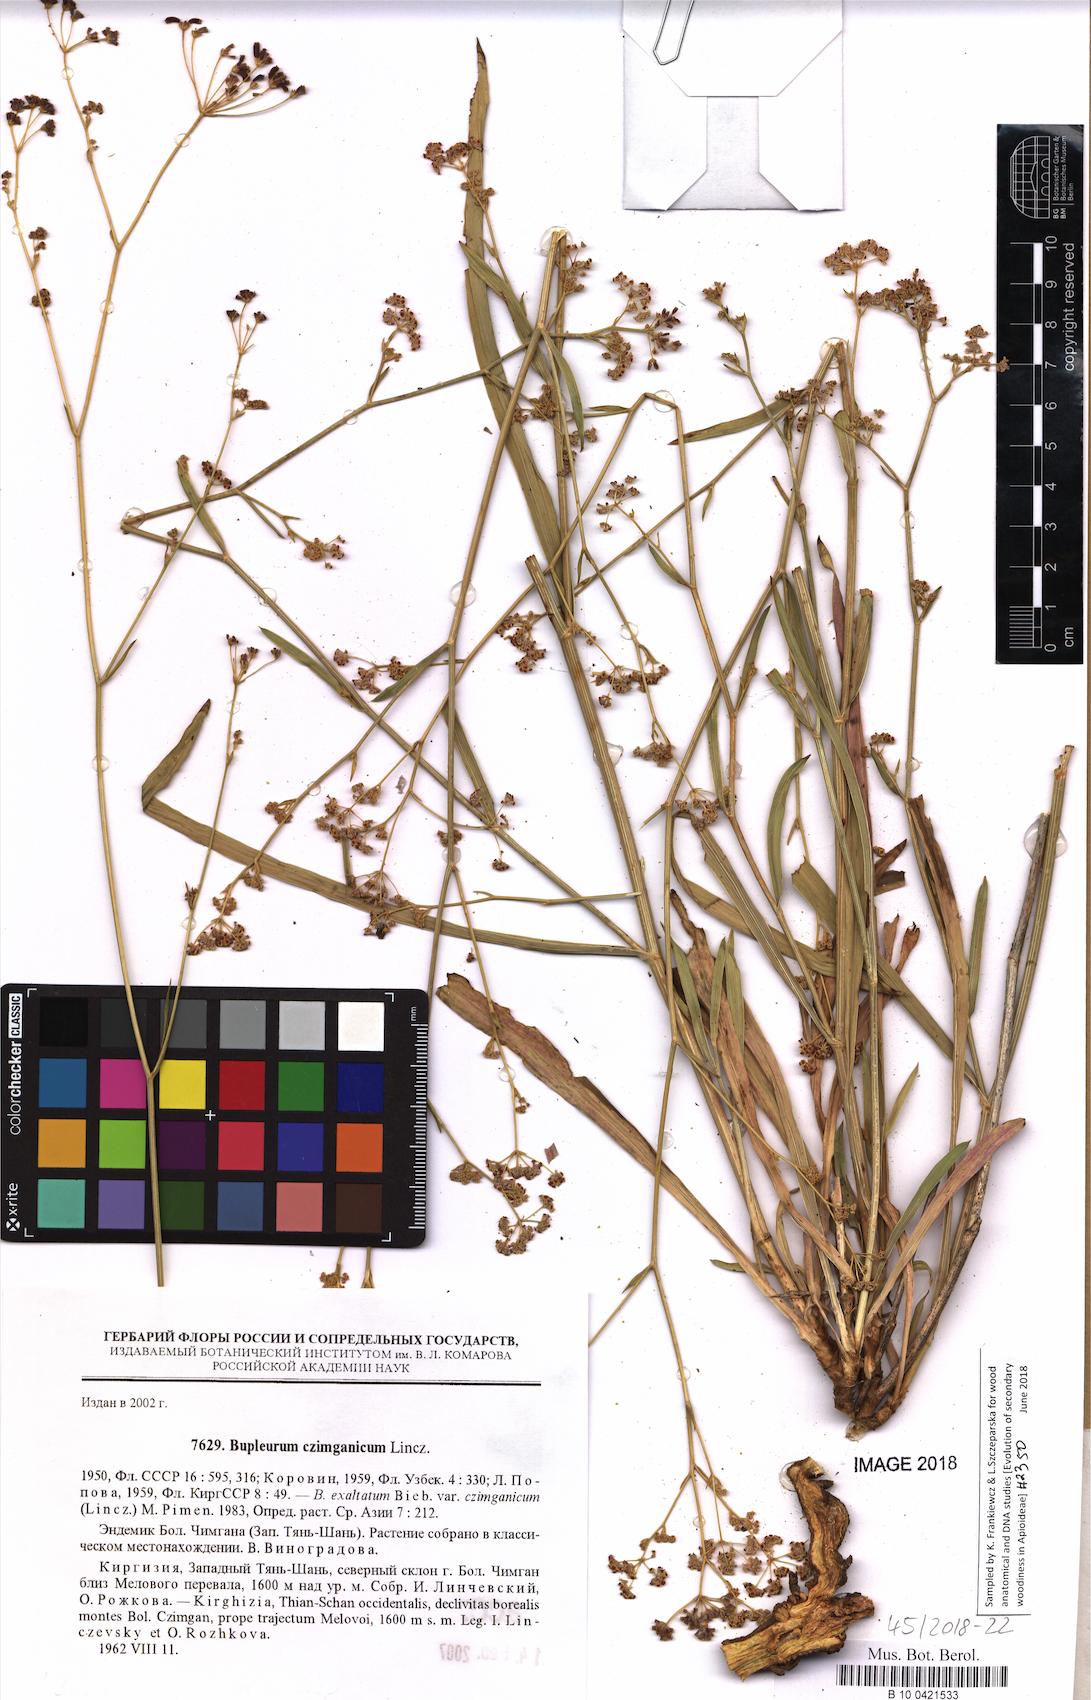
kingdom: Plantae
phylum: Tracheophyta
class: Magnoliopsida
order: Apiales
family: Apiaceae
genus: Bupleurum
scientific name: Bupleurum exaltatum
